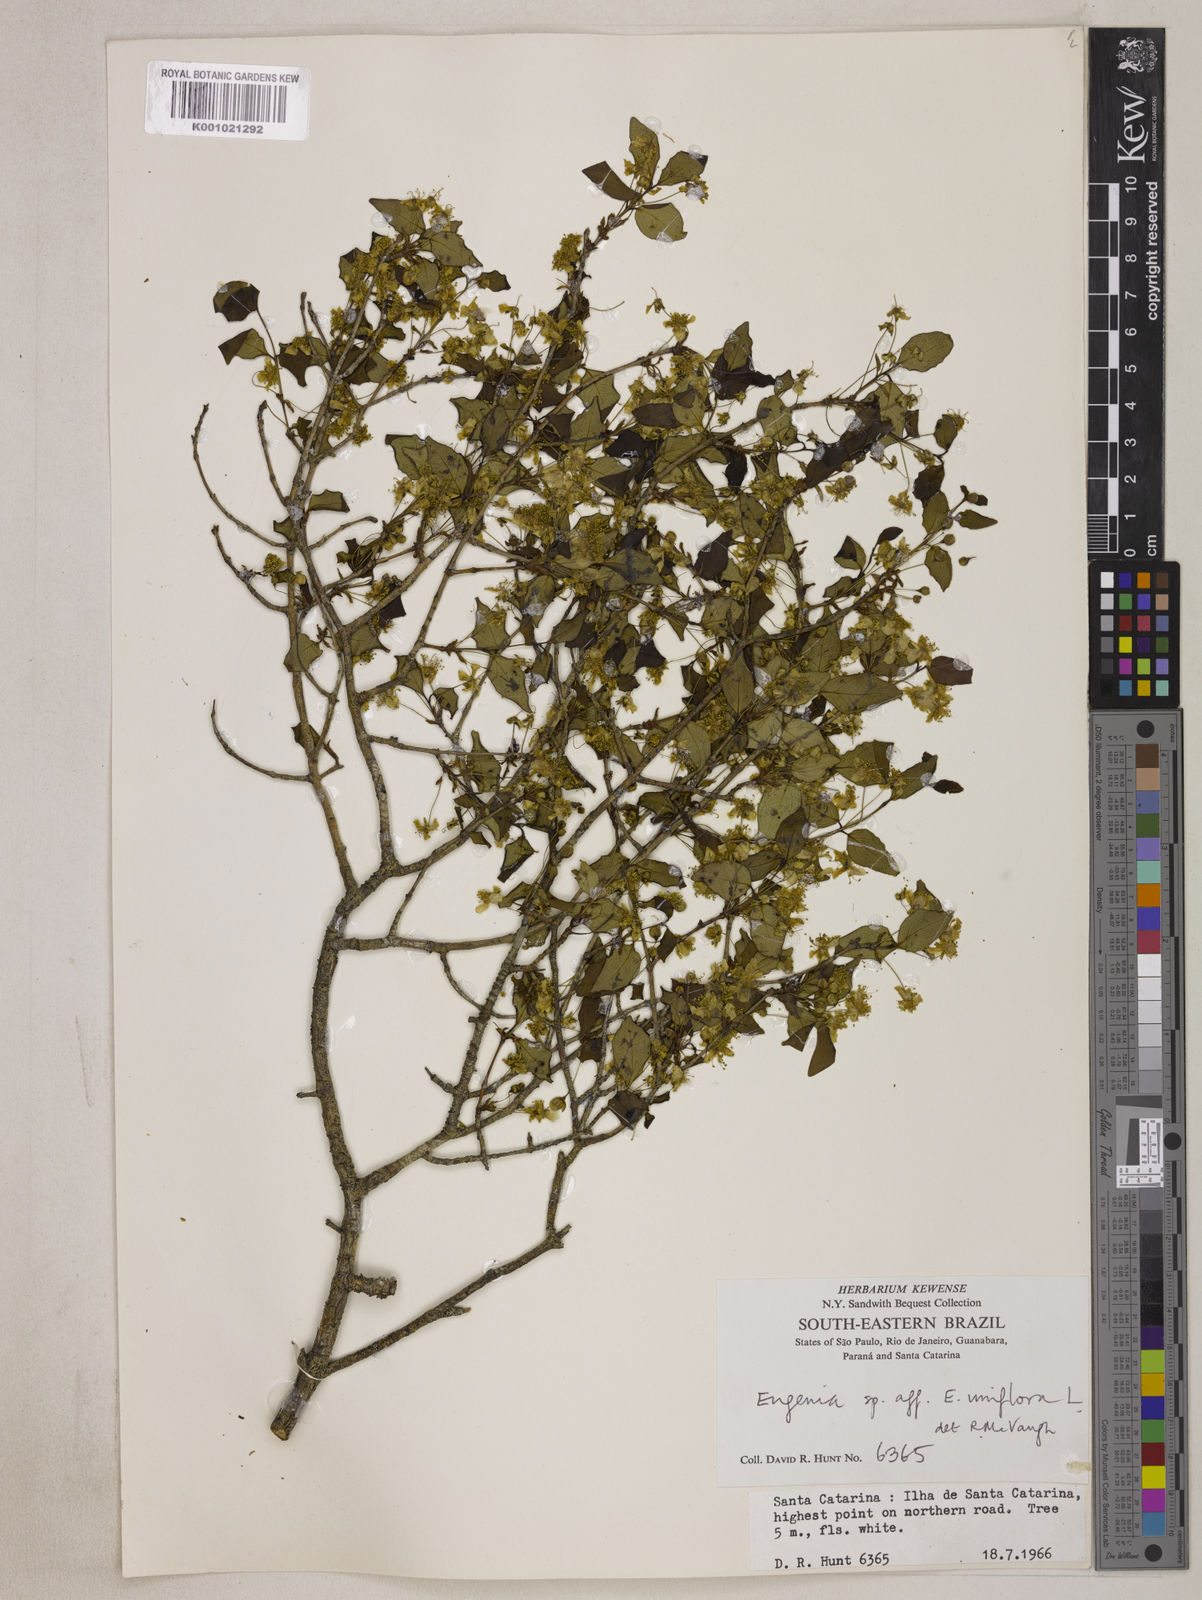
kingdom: Plantae
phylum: Tracheophyta
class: Magnoliopsida
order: Myrtales
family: Myrtaceae
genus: Eugenia
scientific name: Eugenia uniflora
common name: Surinam cherry
